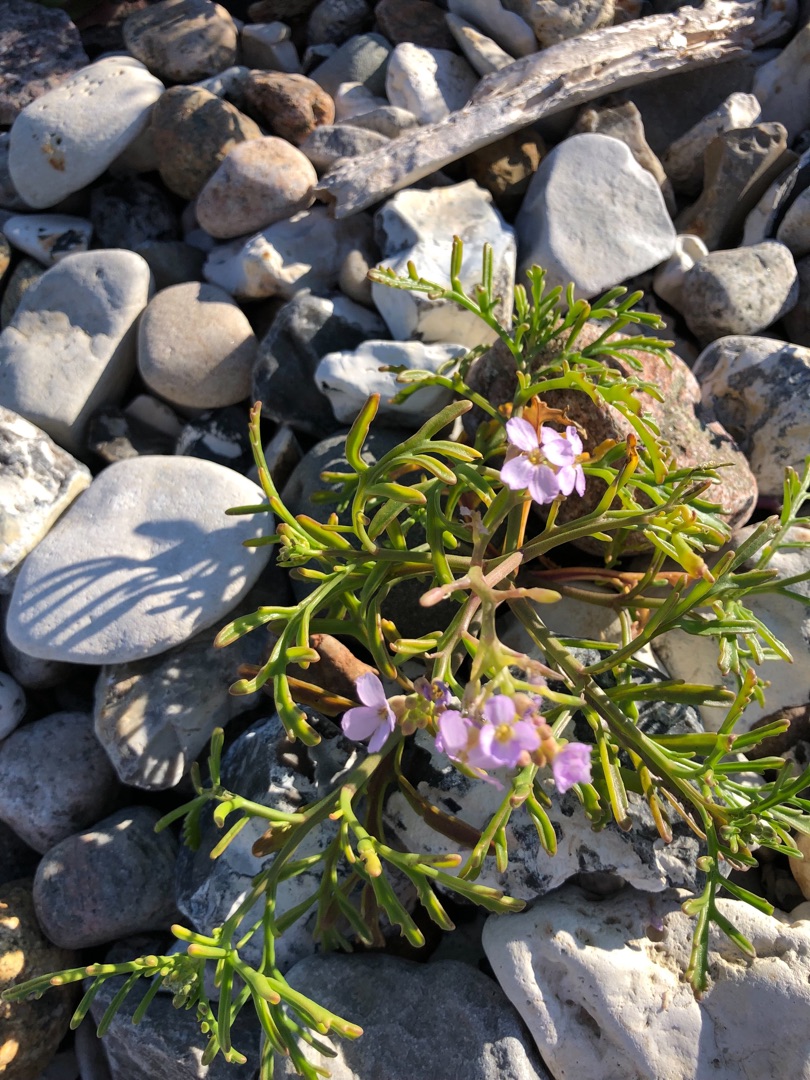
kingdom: Plantae
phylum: Tracheophyta
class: Magnoliopsida
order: Brassicales
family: Brassicaceae
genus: Cakile
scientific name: Cakile maritima
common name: Strandsennep
